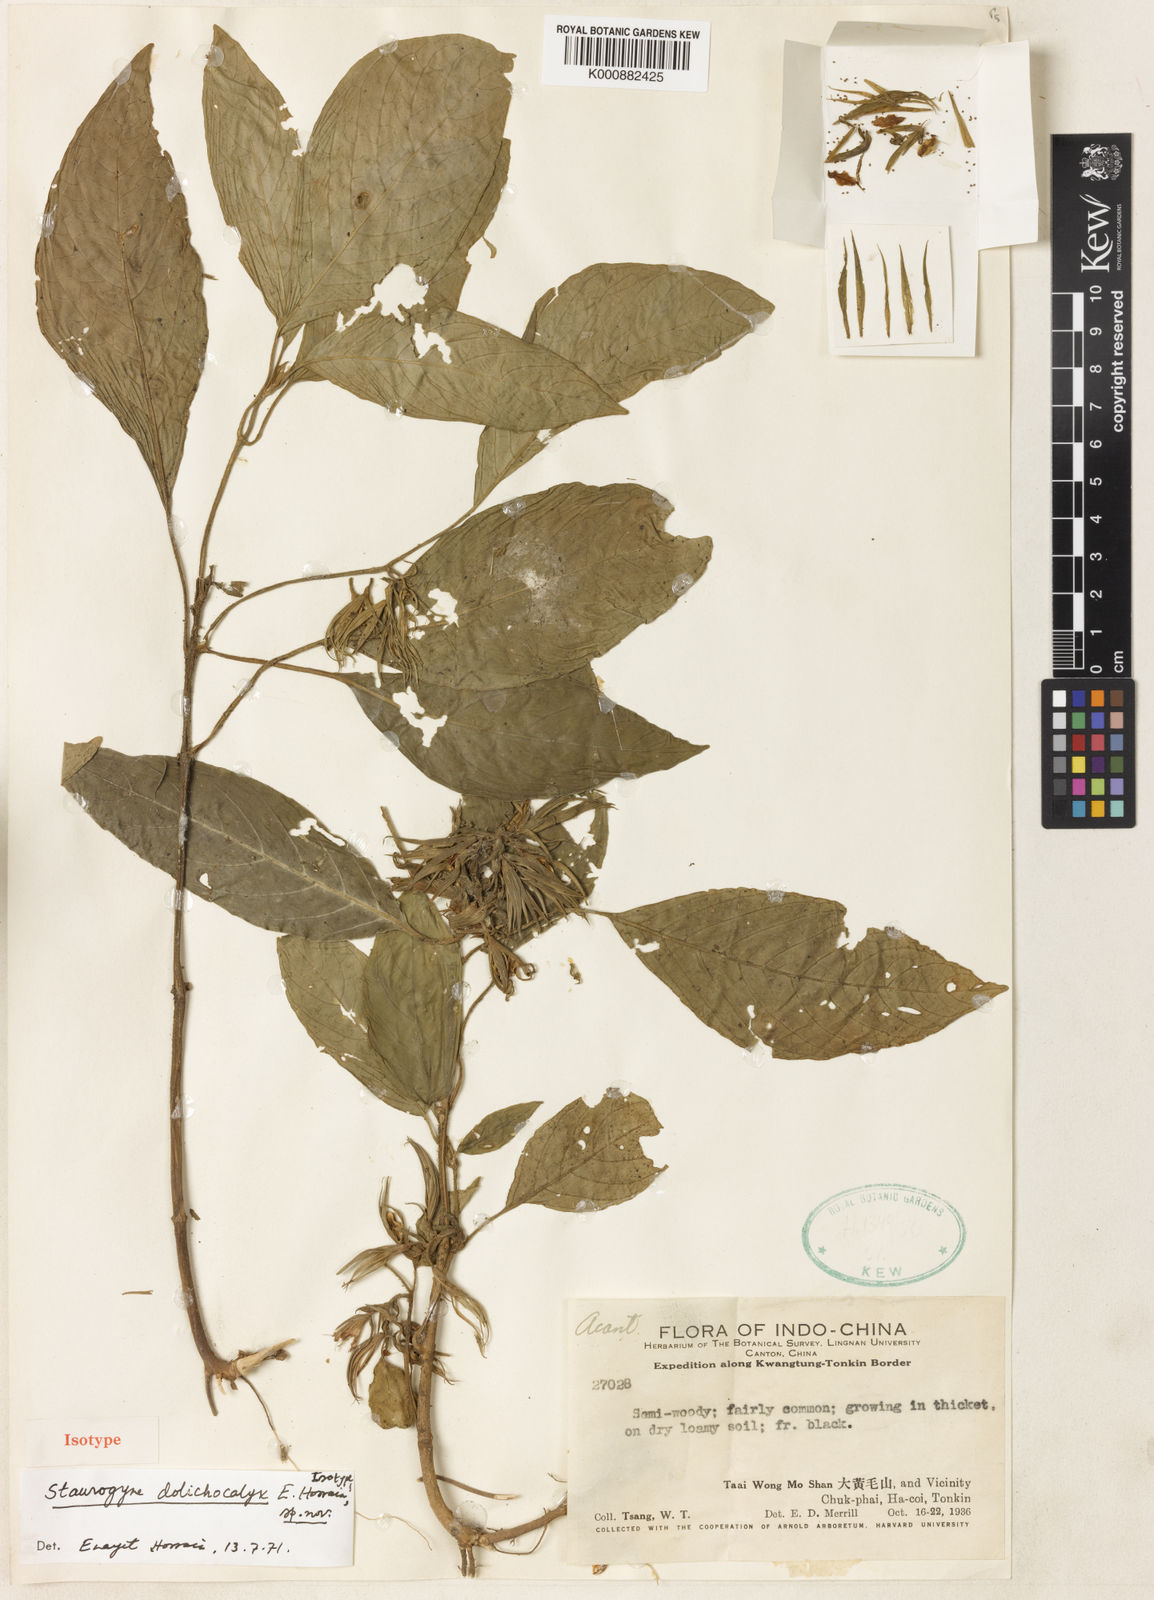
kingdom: Plantae
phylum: Tracheophyta
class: Magnoliopsida
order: Lamiales
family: Acanthaceae
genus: Staurogyne
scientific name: Staurogyne sesamoides
